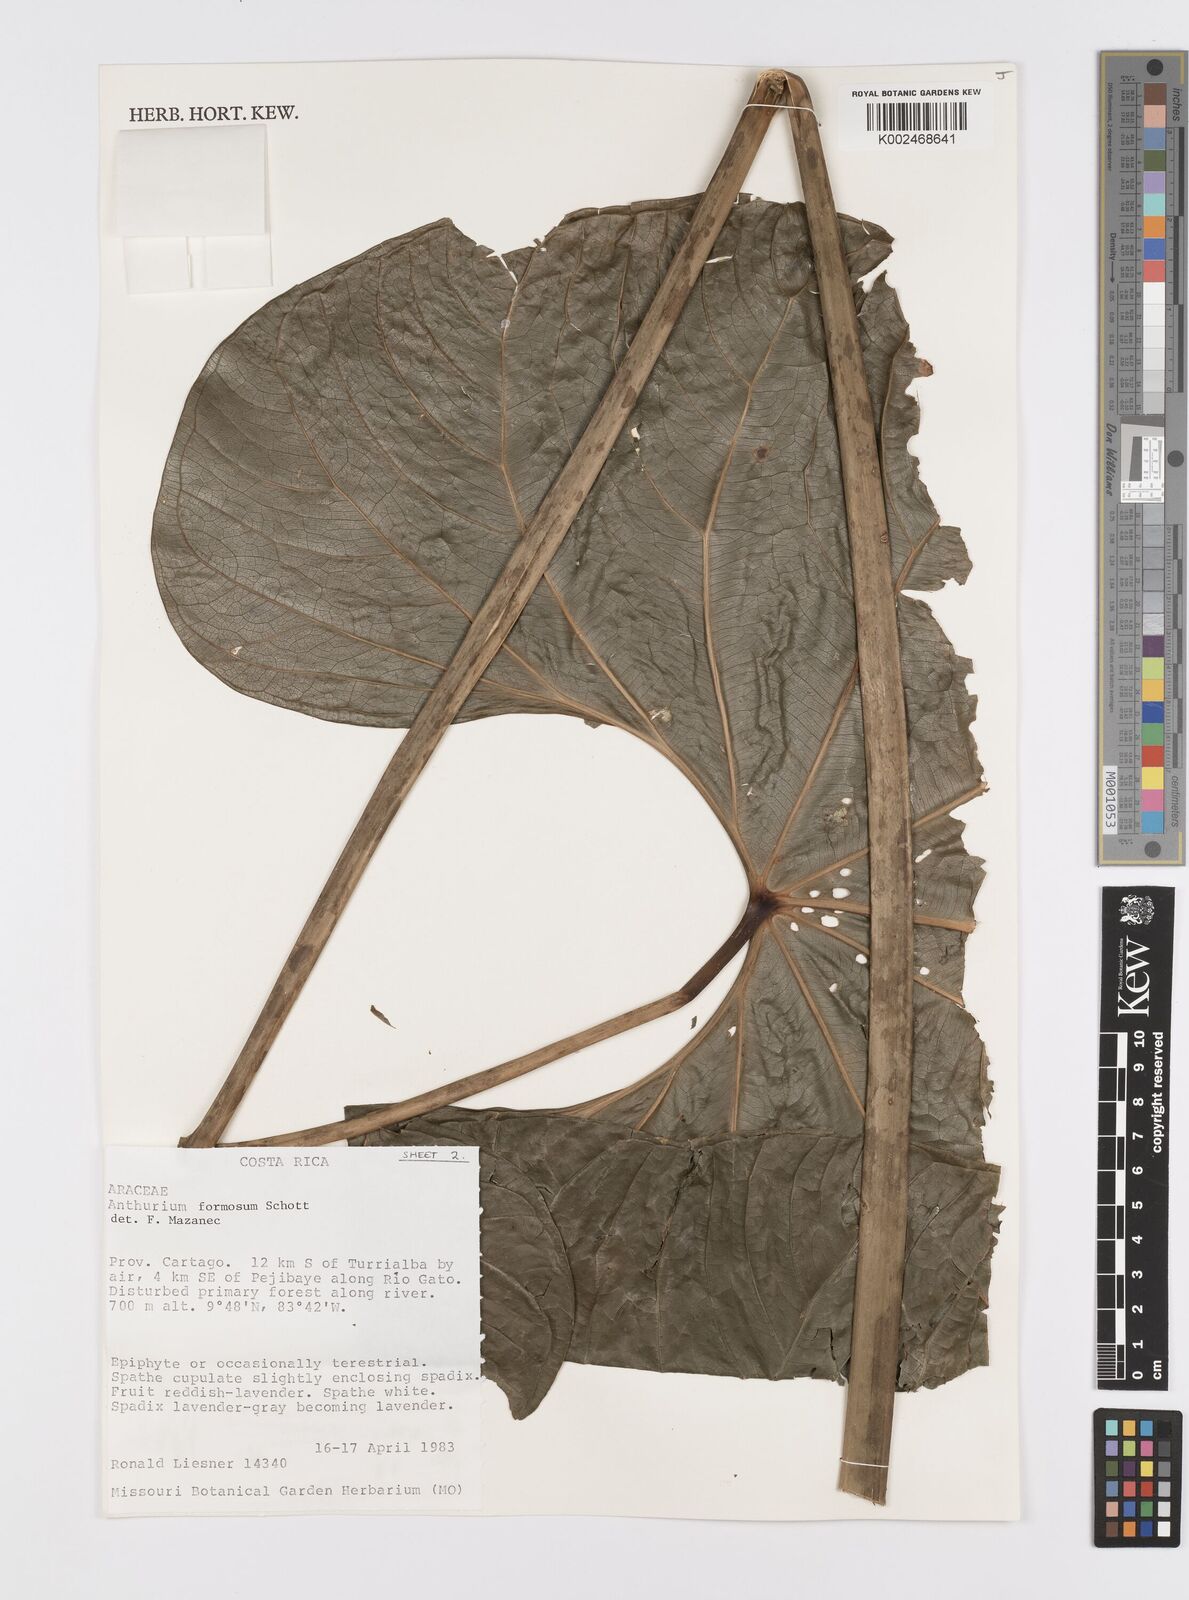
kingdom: Plantae
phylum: Tracheophyta
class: Liliopsida
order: Alismatales
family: Araceae
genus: Anthurium
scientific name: Anthurium formosum
